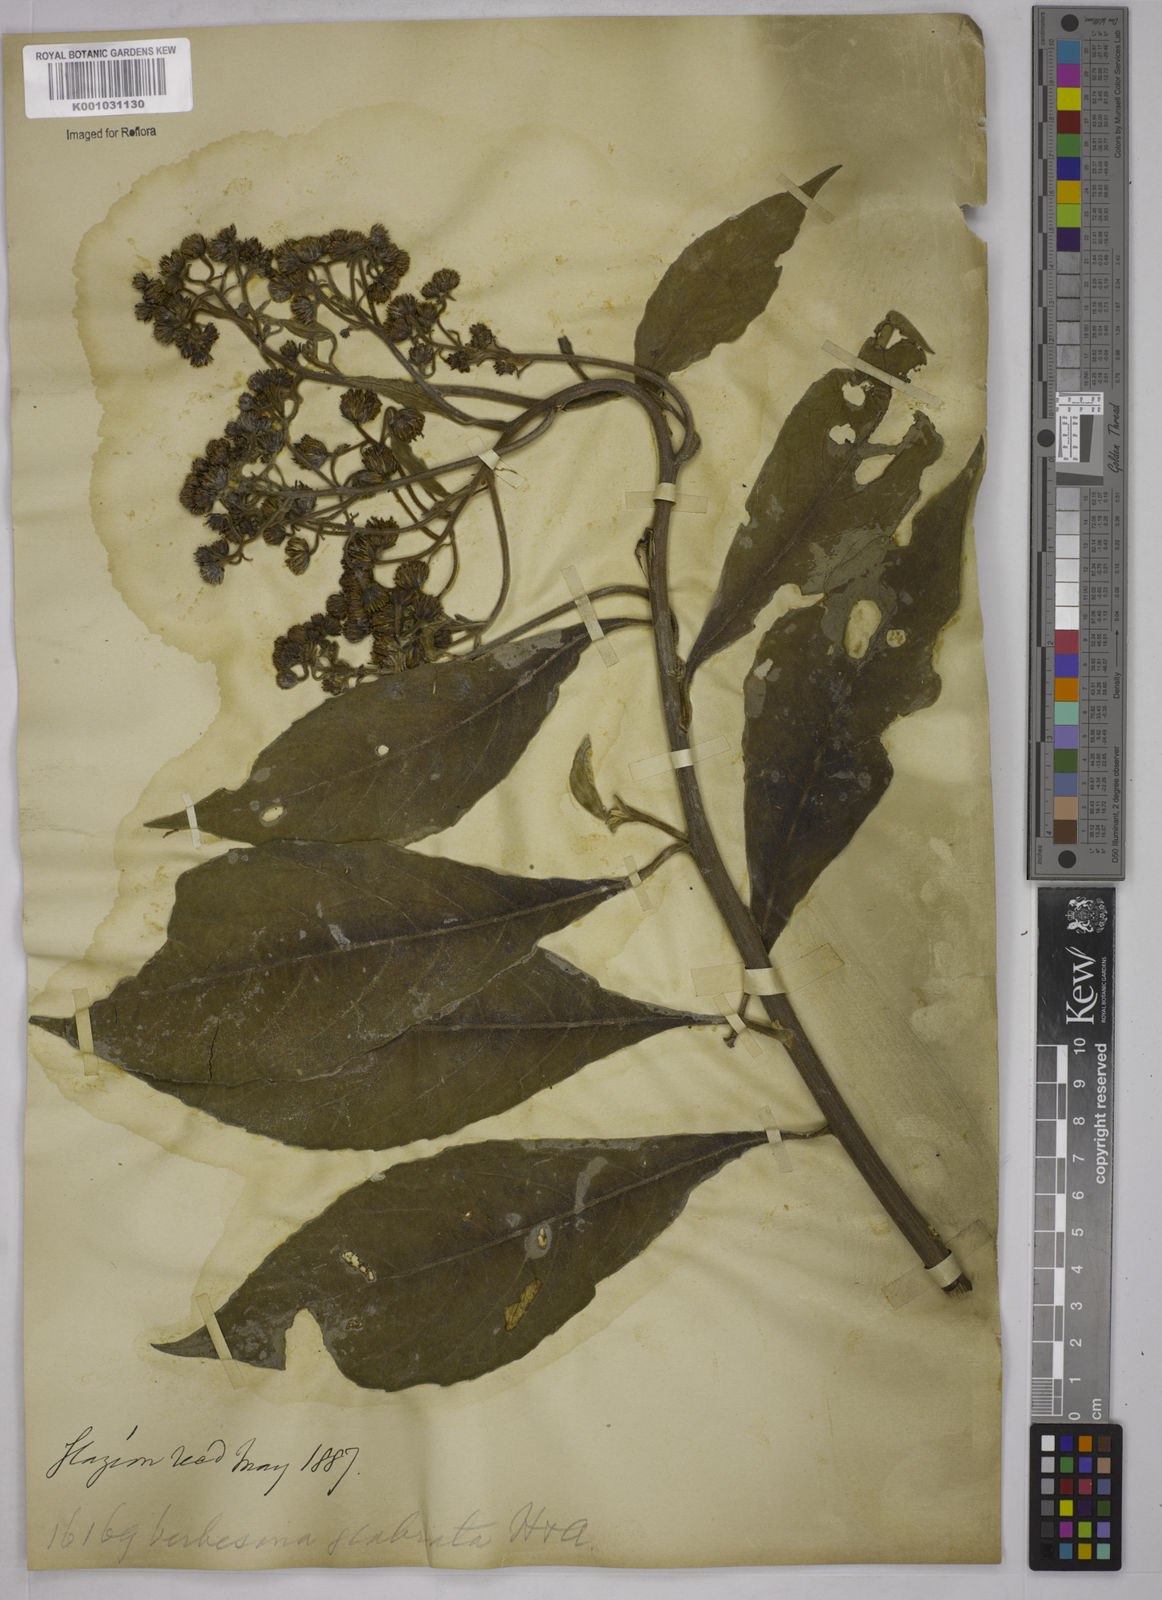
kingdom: Plantae
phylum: Tracheophyta
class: Magnoliopsida
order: Asterales
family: Asteraceae
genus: Verbesina
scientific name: Verbesina glabrata
